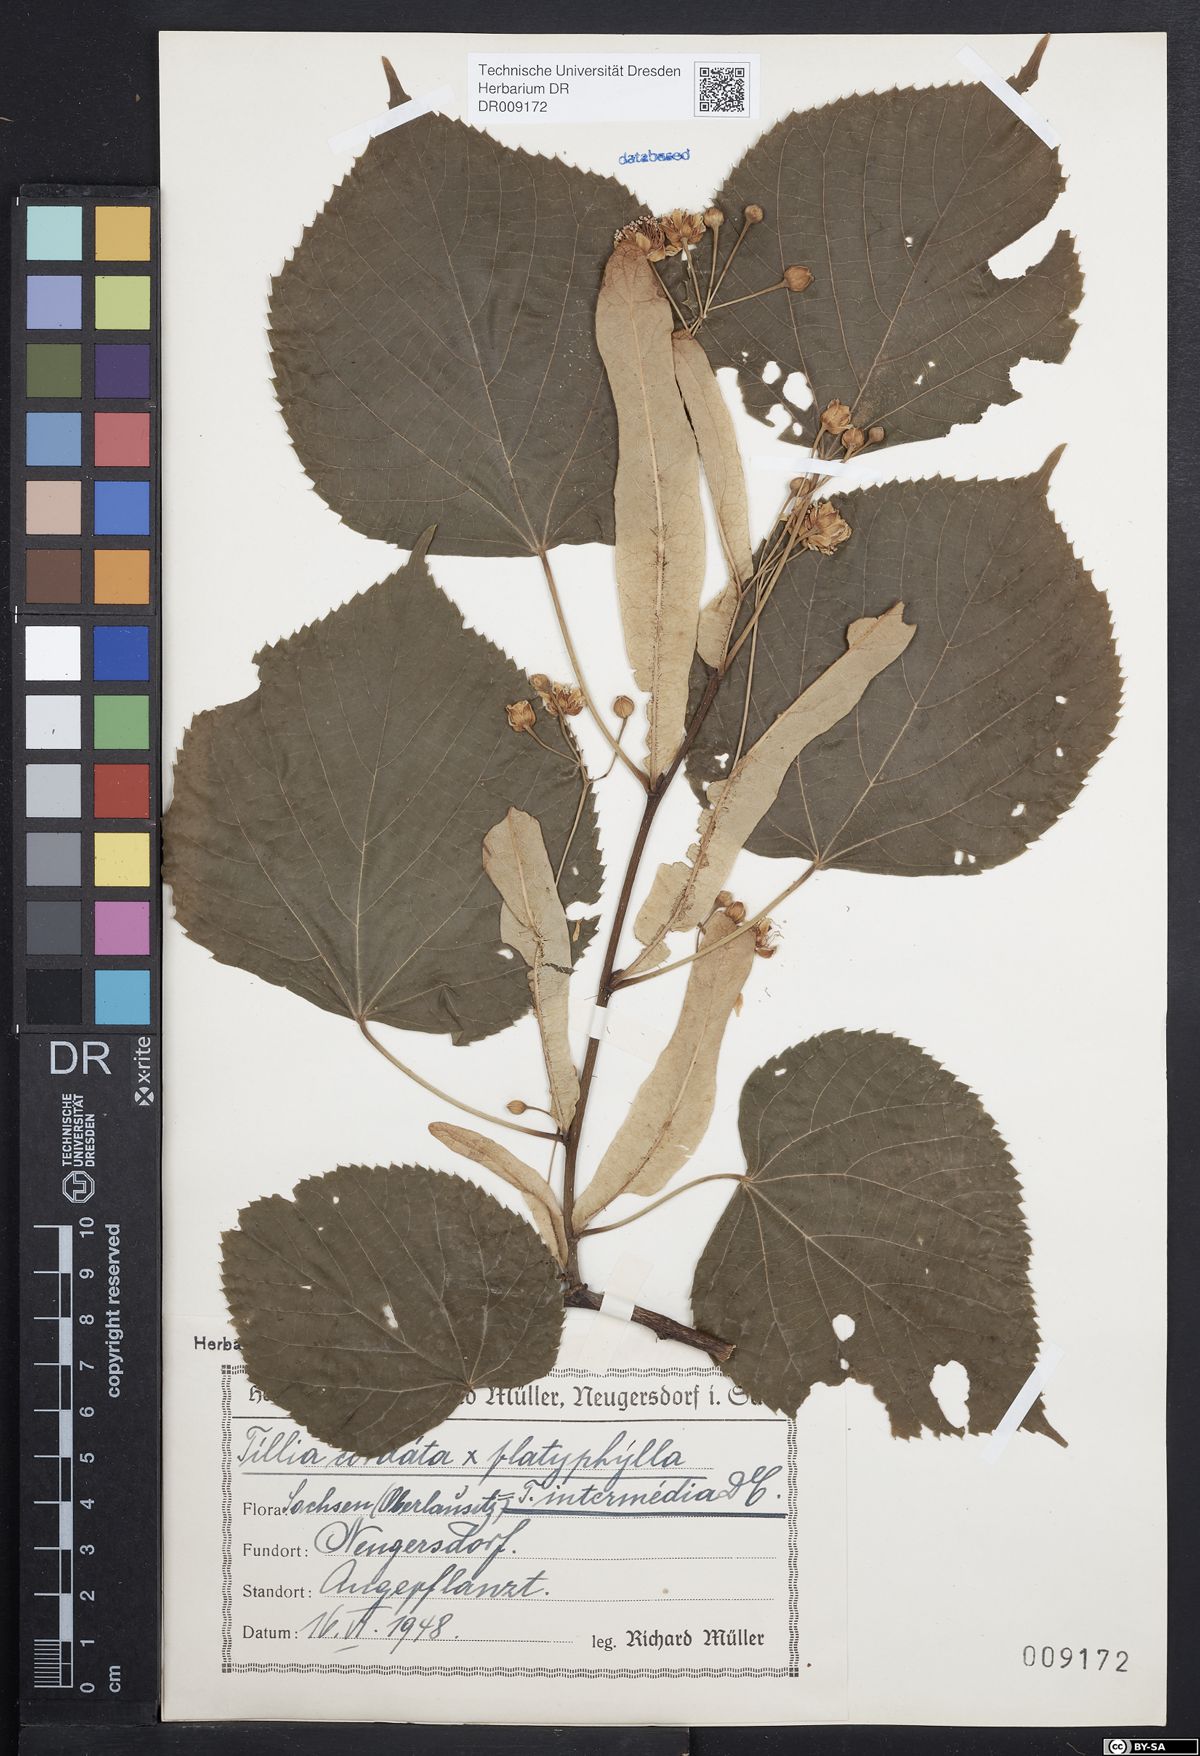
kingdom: Plantae
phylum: Tracheophyta
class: Magnoliopsida
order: Malvales
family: Malvaceae
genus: Tilia
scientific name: Tilia cordata
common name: Small-leaved lime
